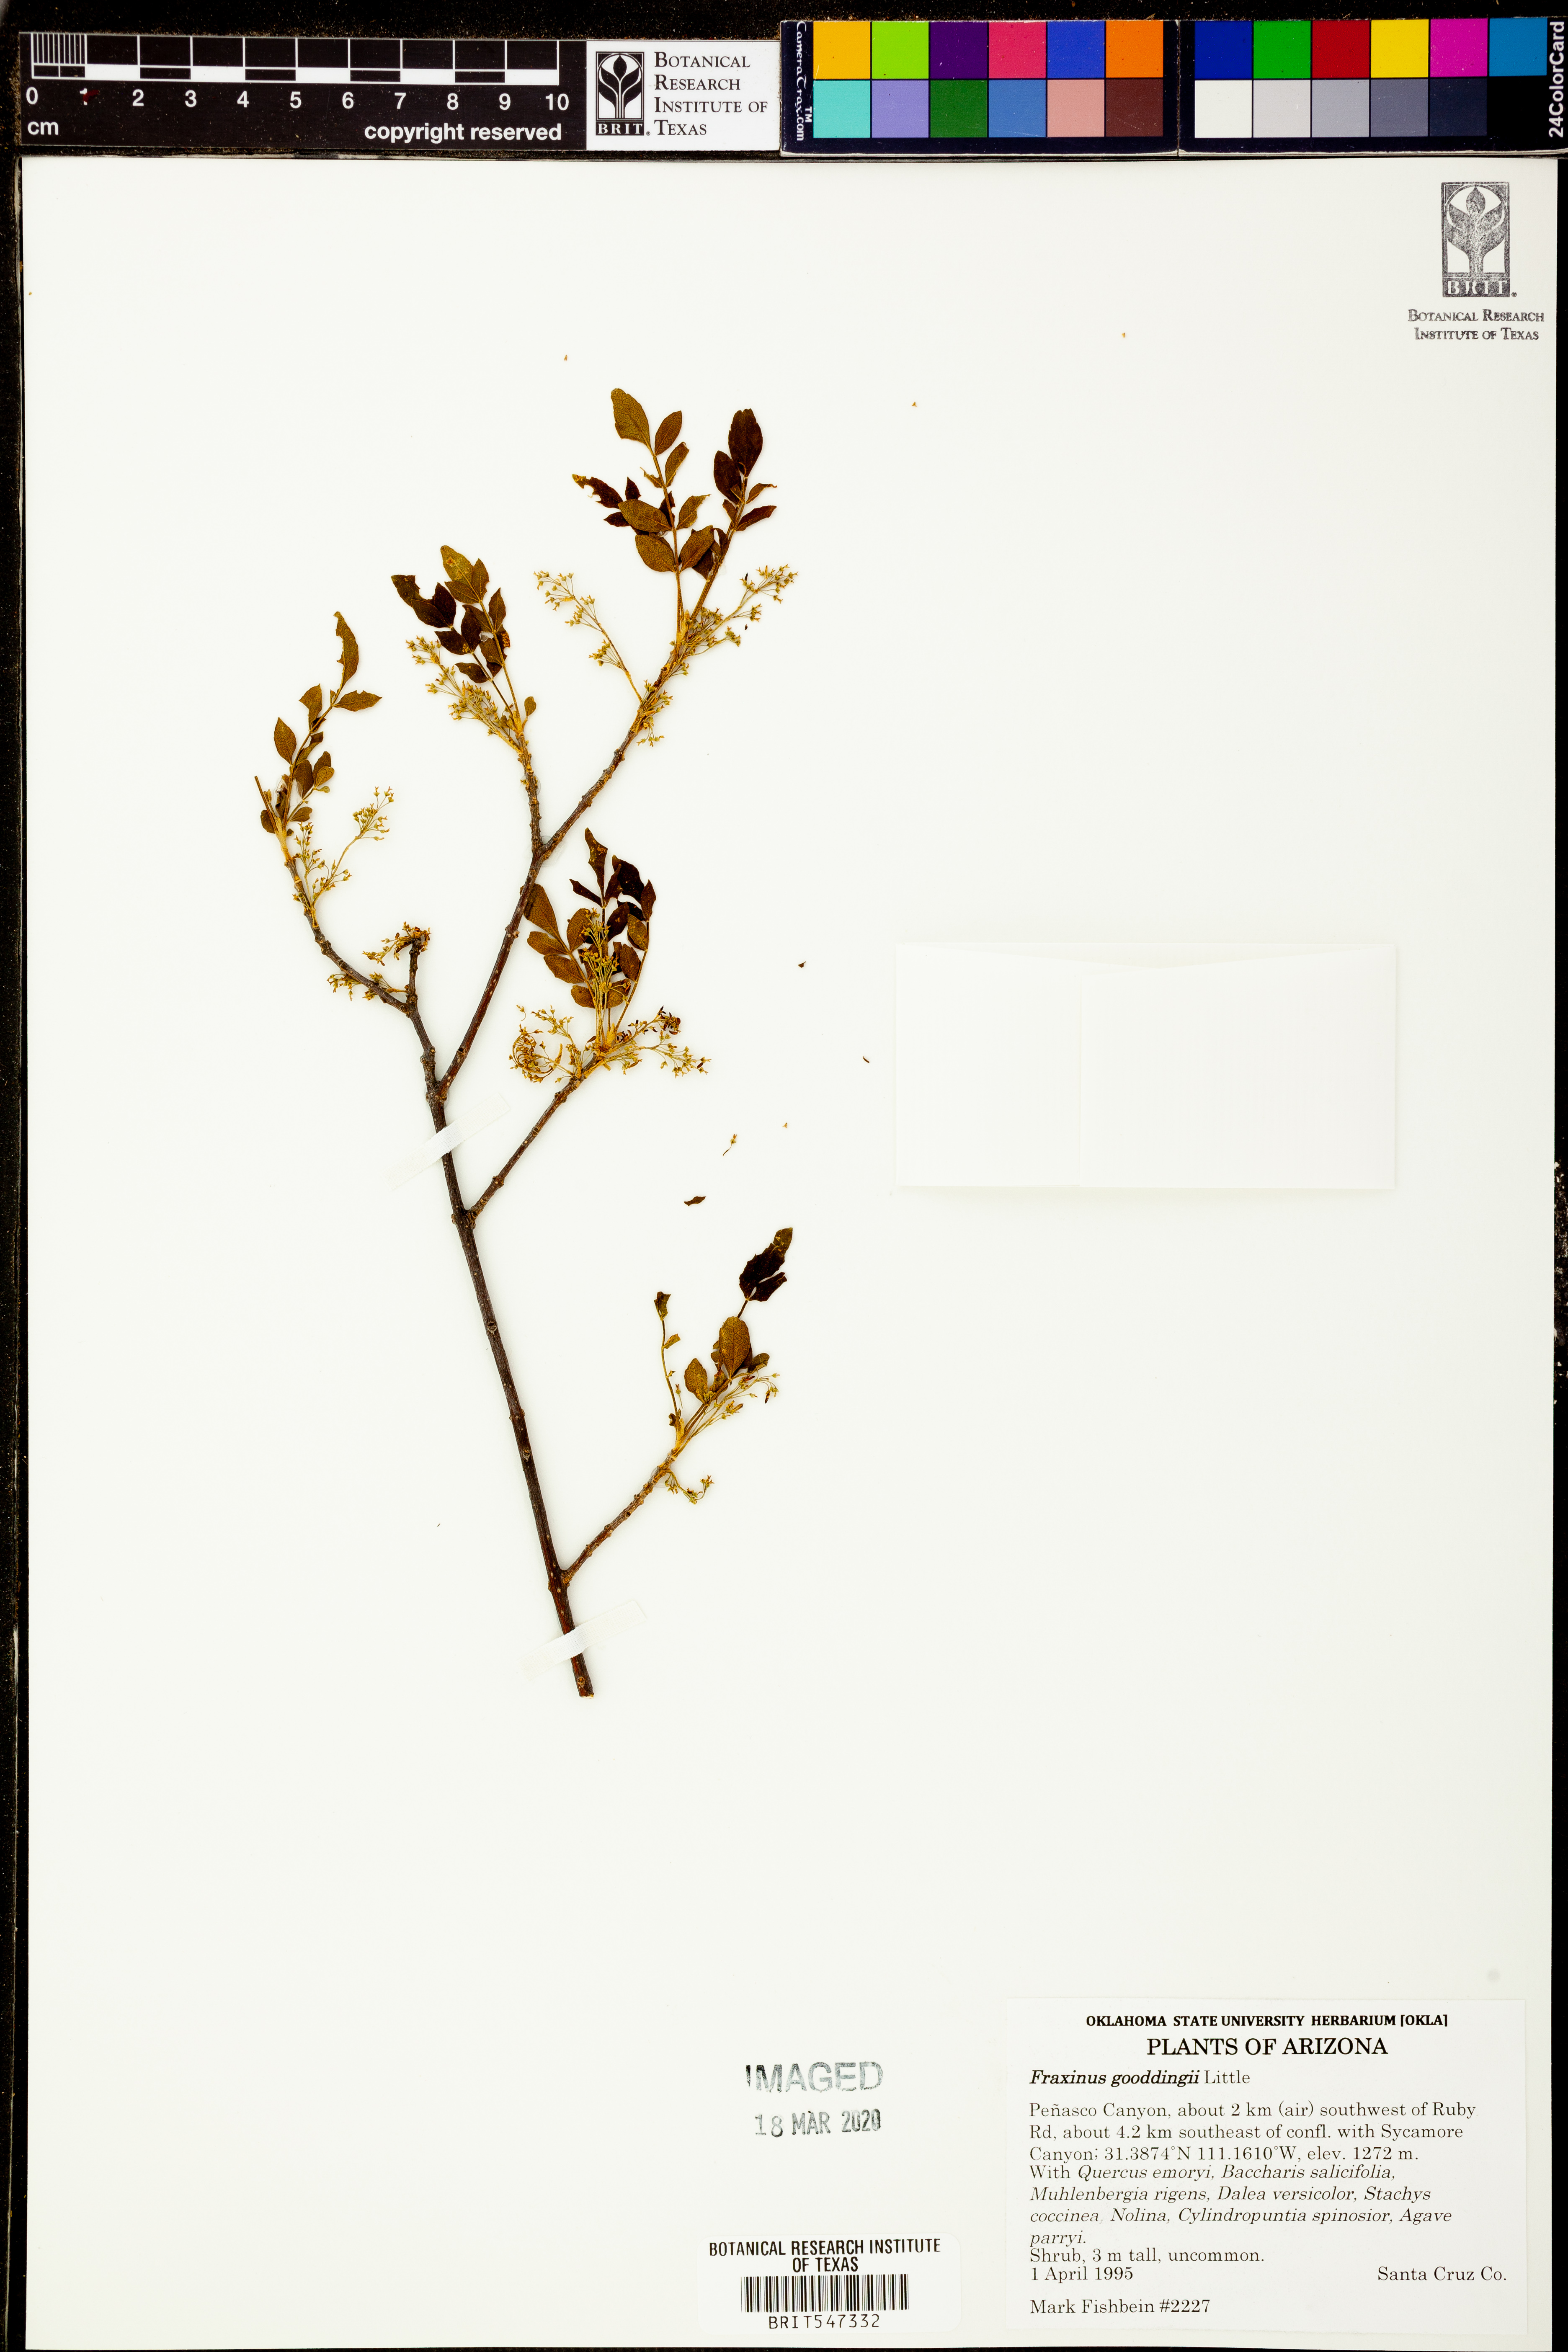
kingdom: Plantae
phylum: Tracheophyta
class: Magnoliopsida
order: Lamiales
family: Oleaceae
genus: Fraxinus
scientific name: Fraxinus gooddingii
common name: Goodding ash
